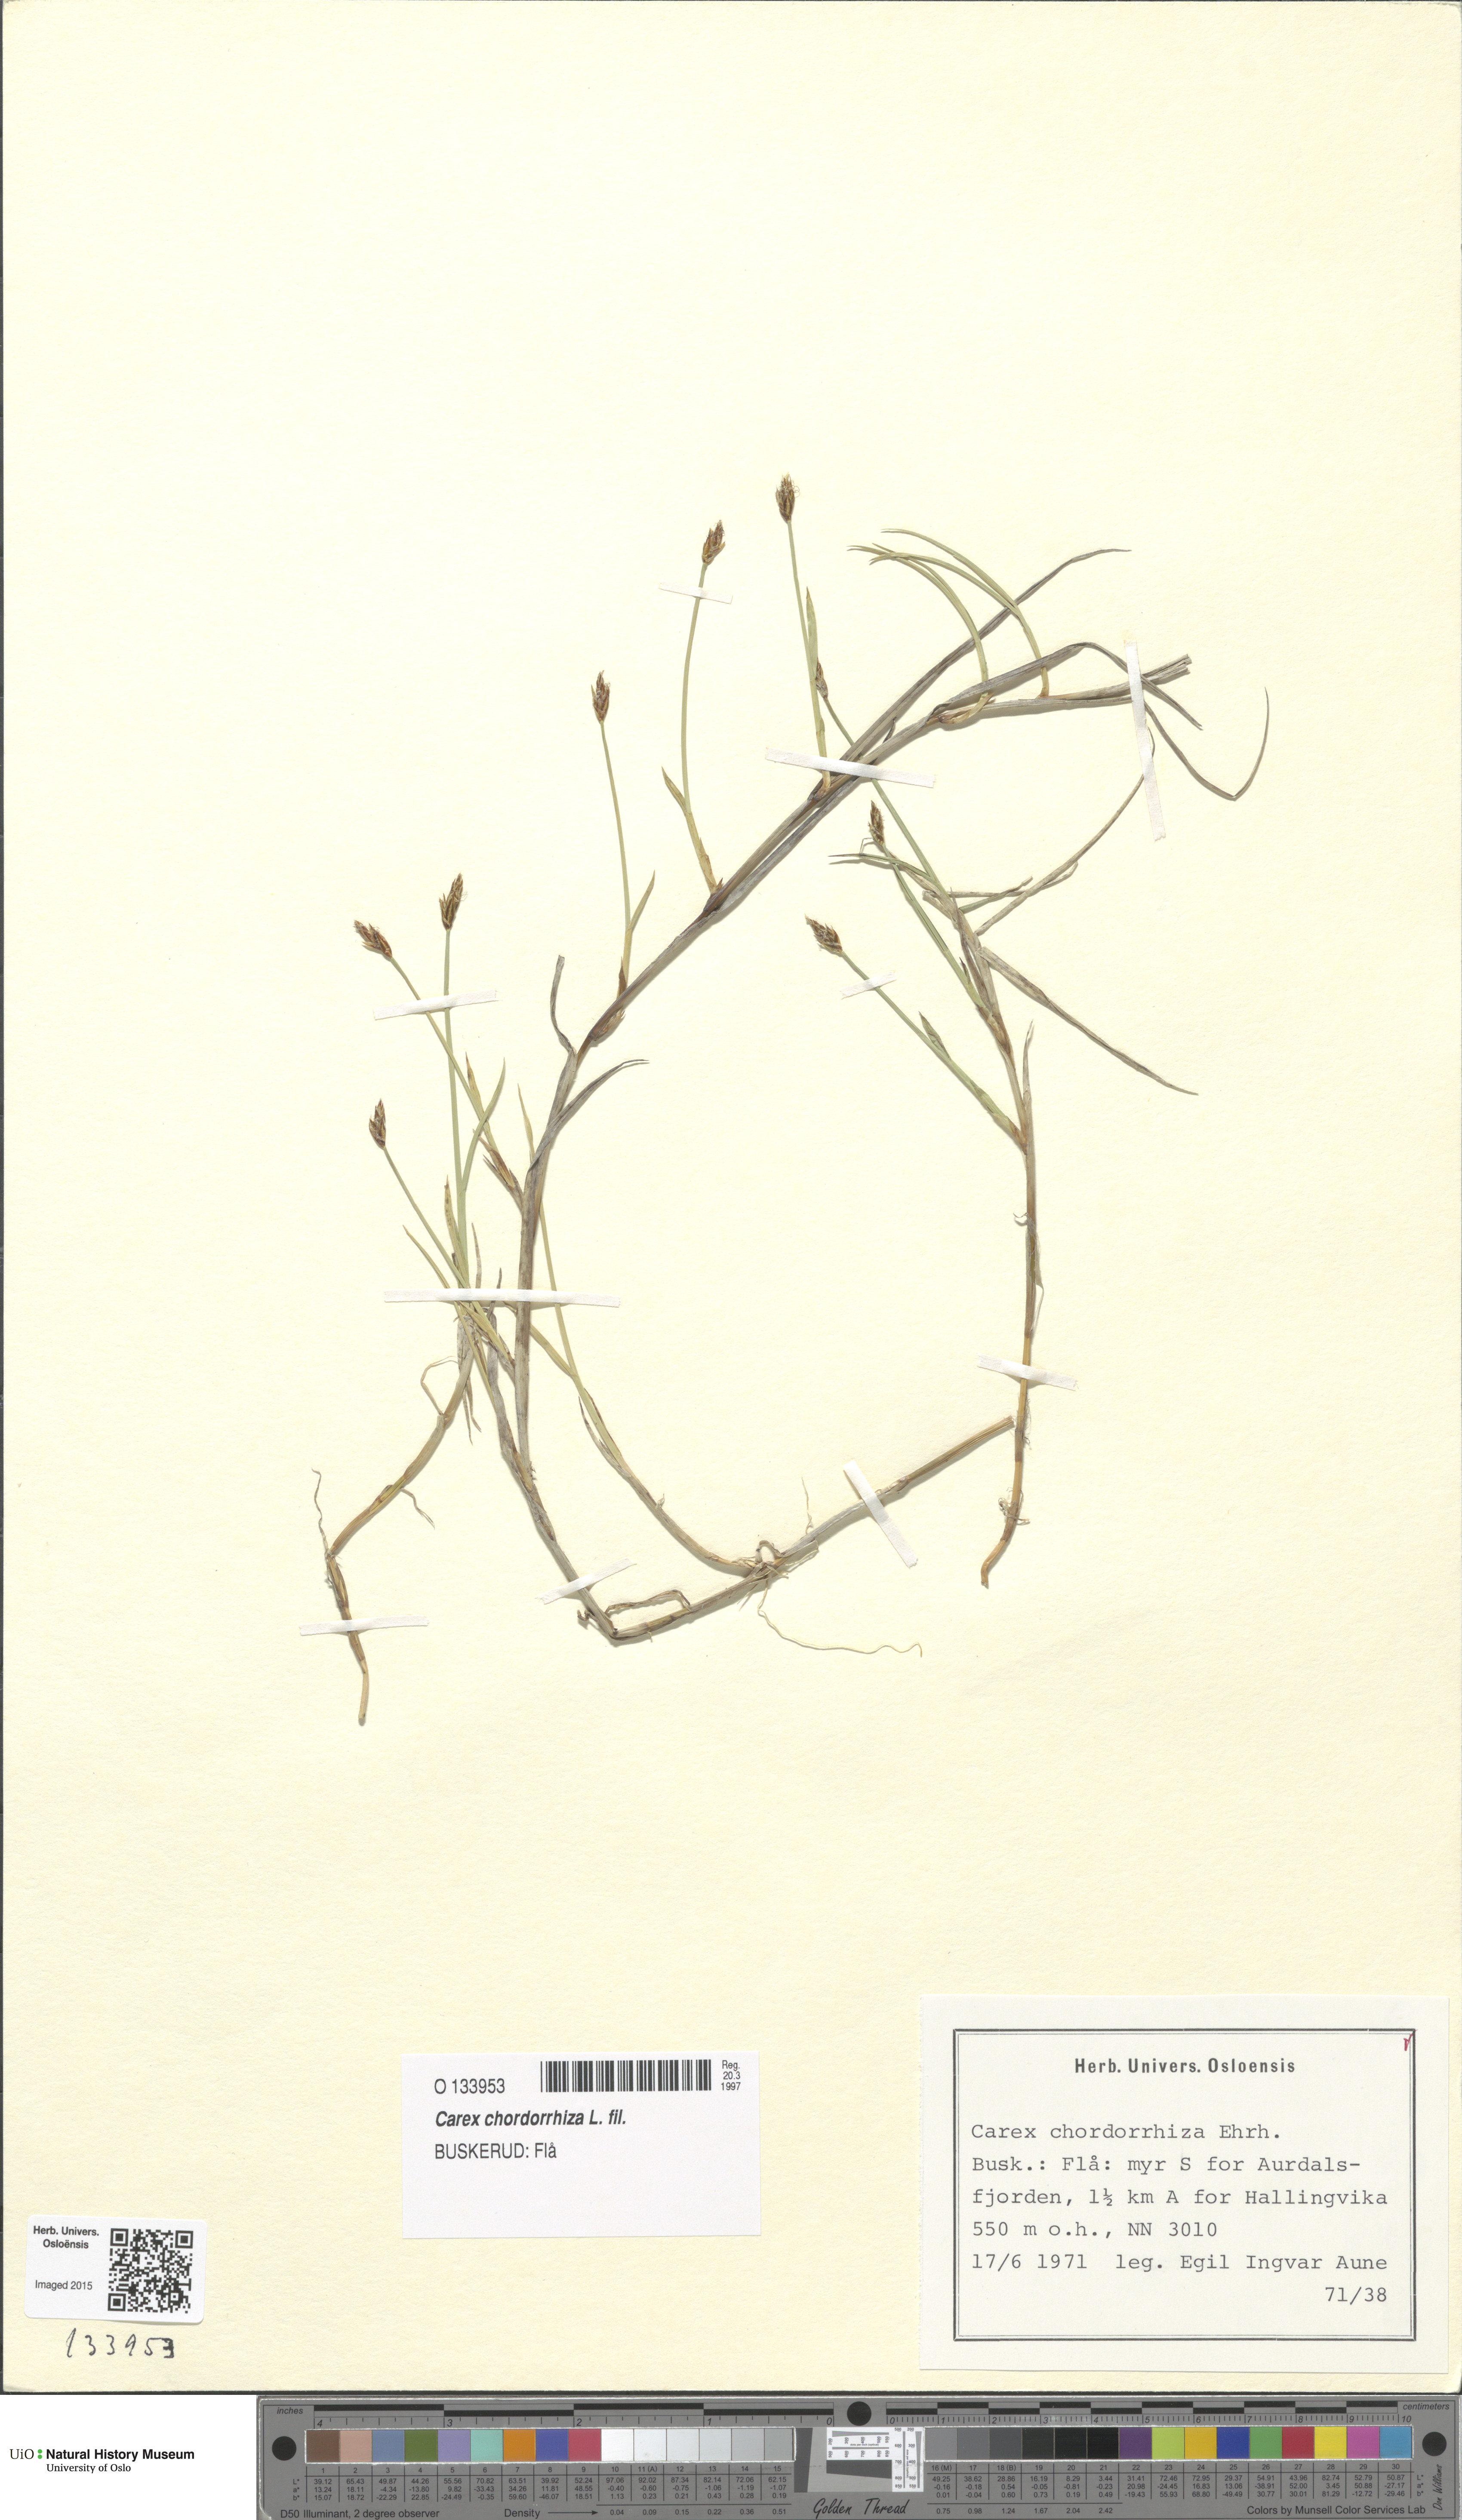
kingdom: Plantae
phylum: Tracheophyta
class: Liliopsida
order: Poales
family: Cyperaceae
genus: Carex
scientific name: Carex chordorrhiza
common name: String sedge
